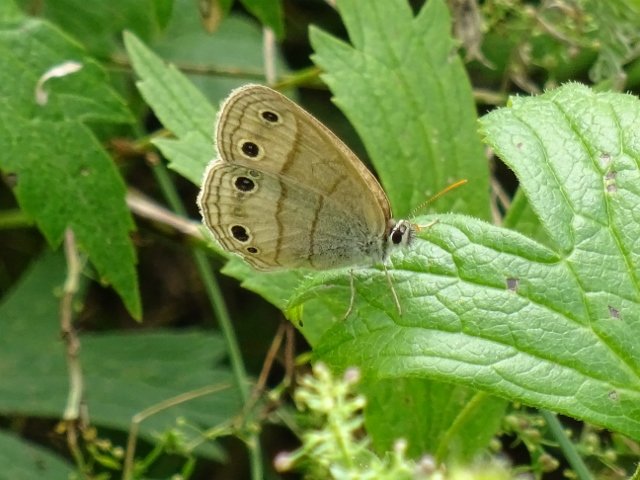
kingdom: Animalia
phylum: Arthropoda
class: Insecta
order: Lepidoptera
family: Nymphalidae
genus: Euptychia
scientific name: Euptychia cymela
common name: Little Wood Satyr
